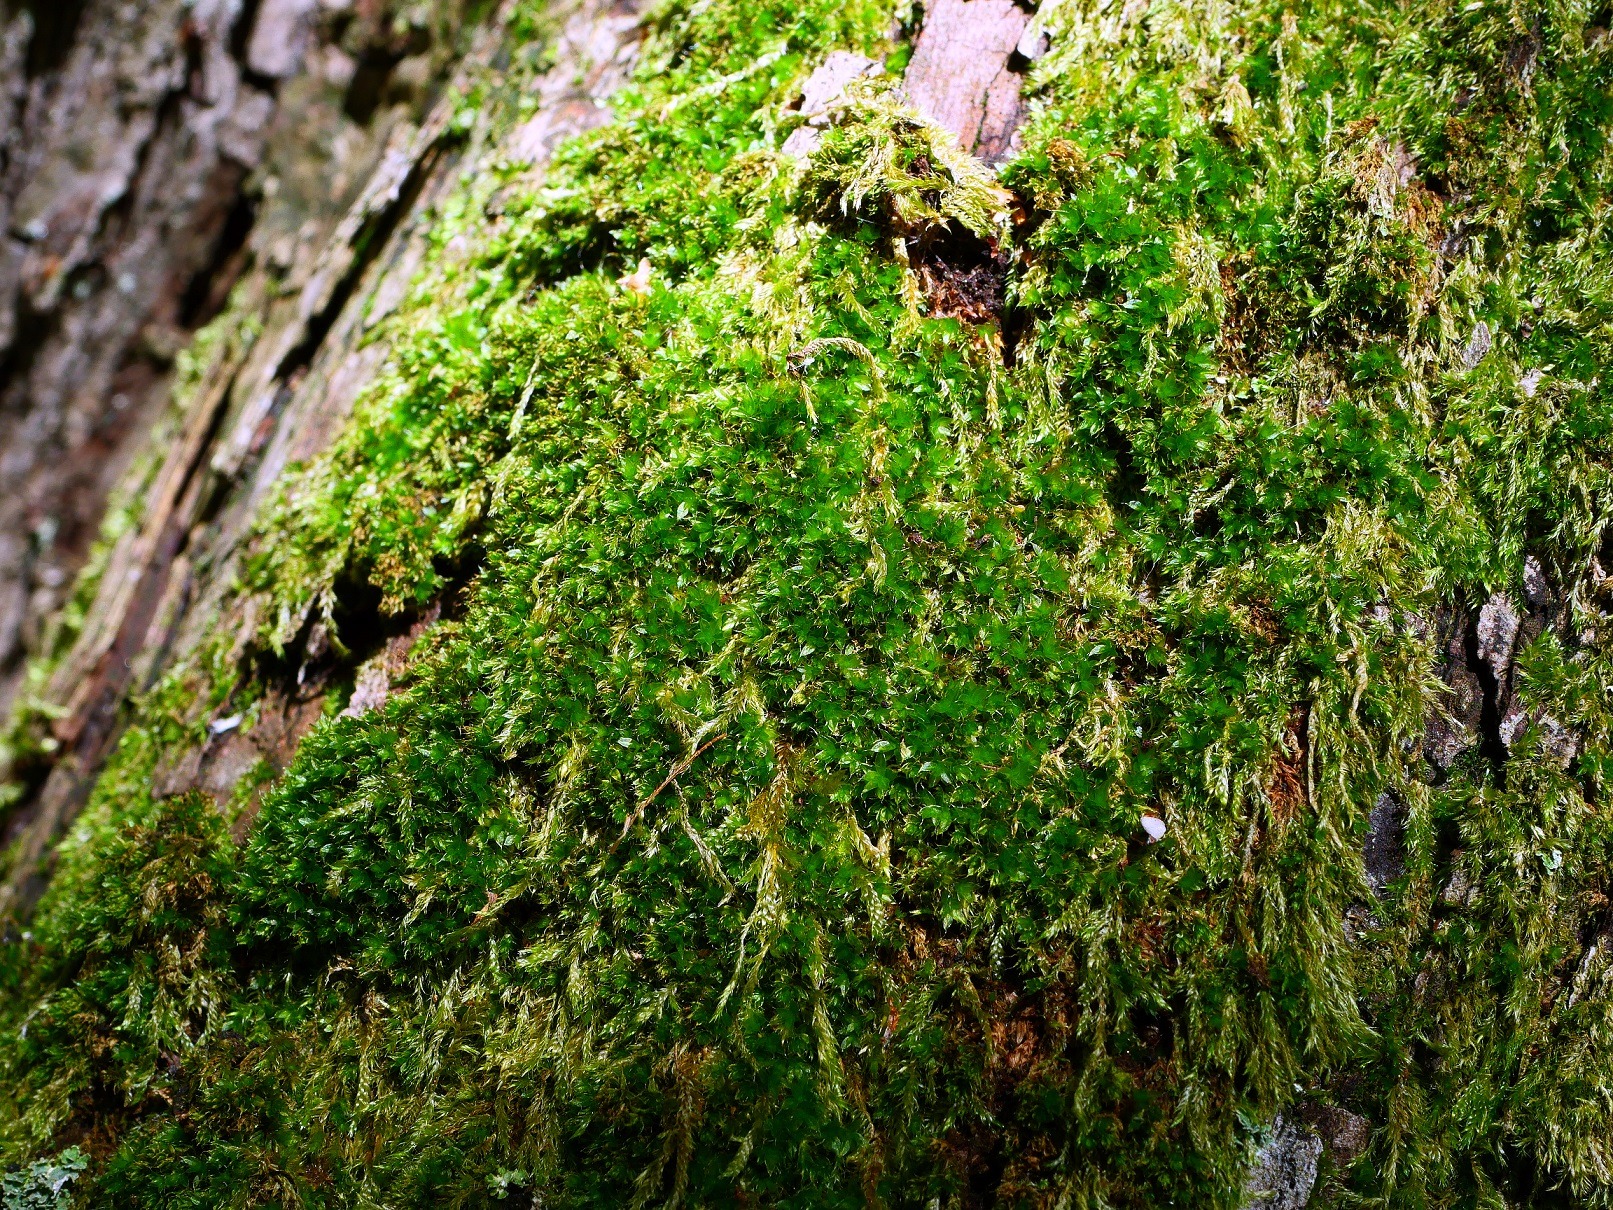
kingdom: Plantae
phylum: Bryophyta
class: Bryopsida
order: Bryales
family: Bryaceae
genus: Rosulabryum
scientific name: Rosulabryum moravicum
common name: Bark-bryum
